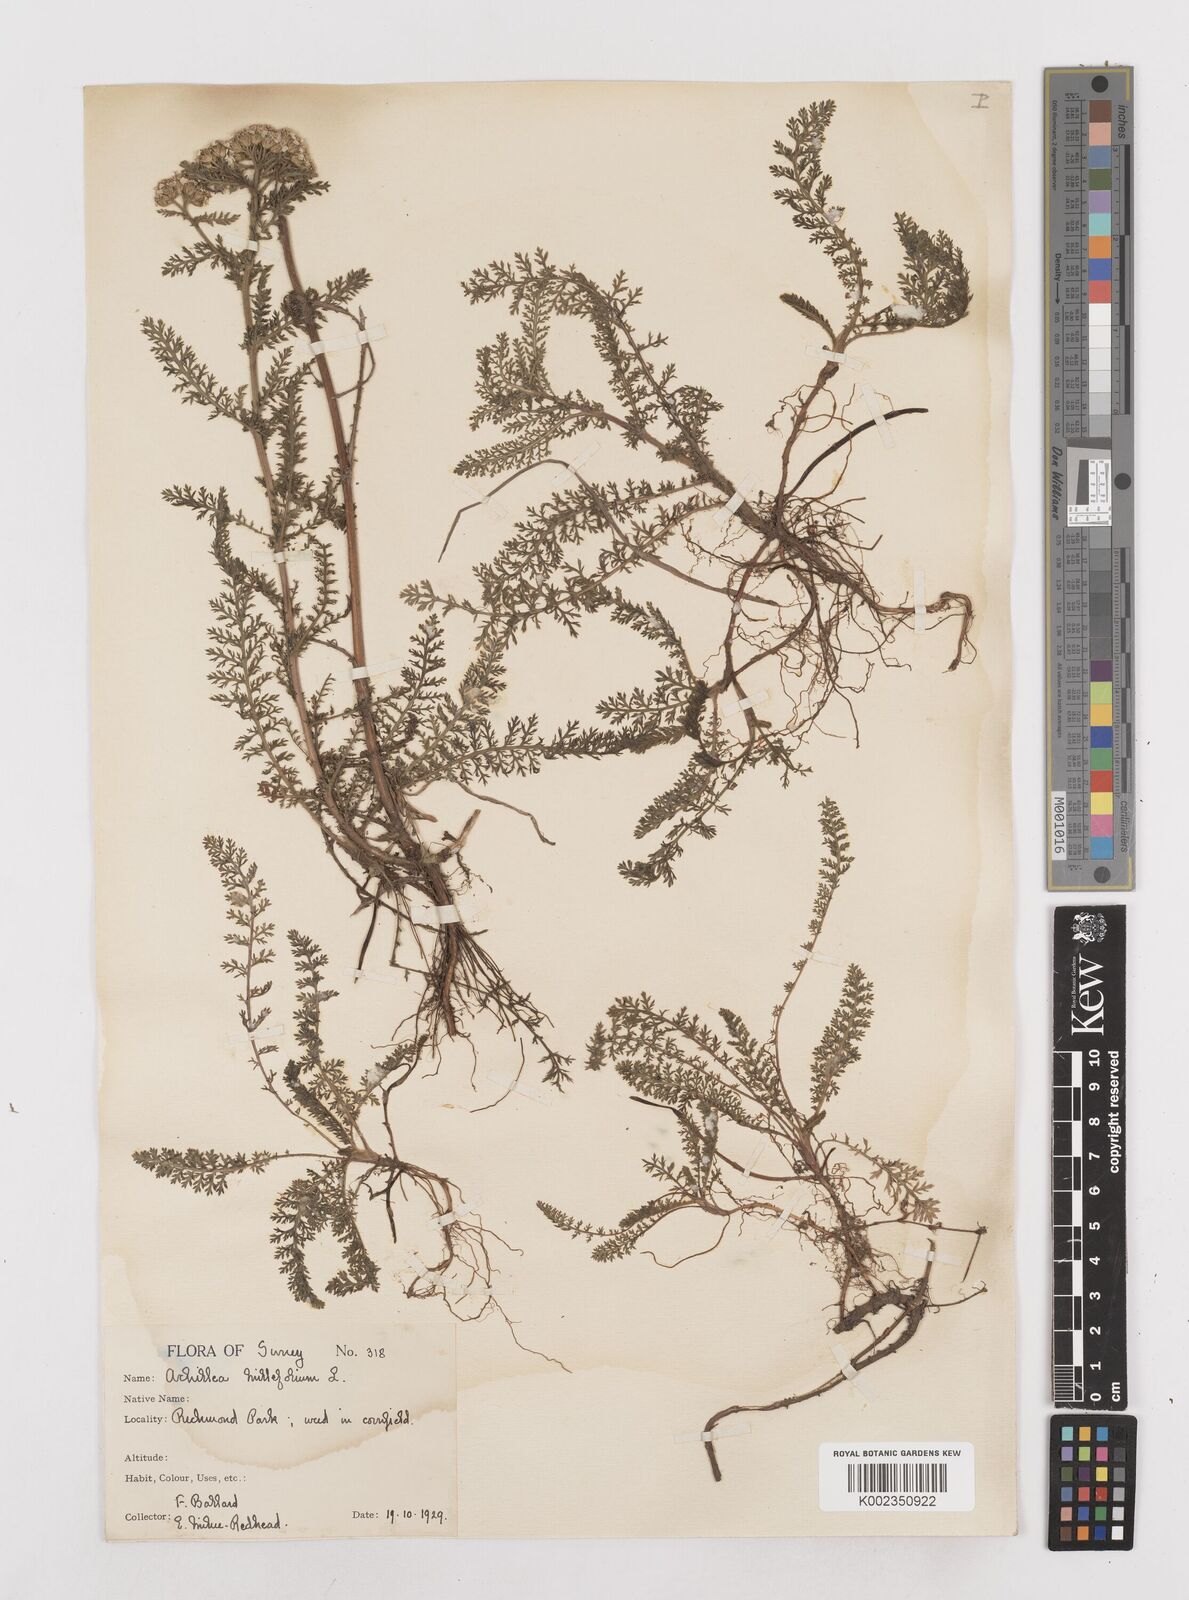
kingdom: Plantae
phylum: Tracheophyta
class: Magnoliopsida
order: Asterales
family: Asteraceae
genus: Achillea
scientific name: Achillea millefolium
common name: Yarrow
